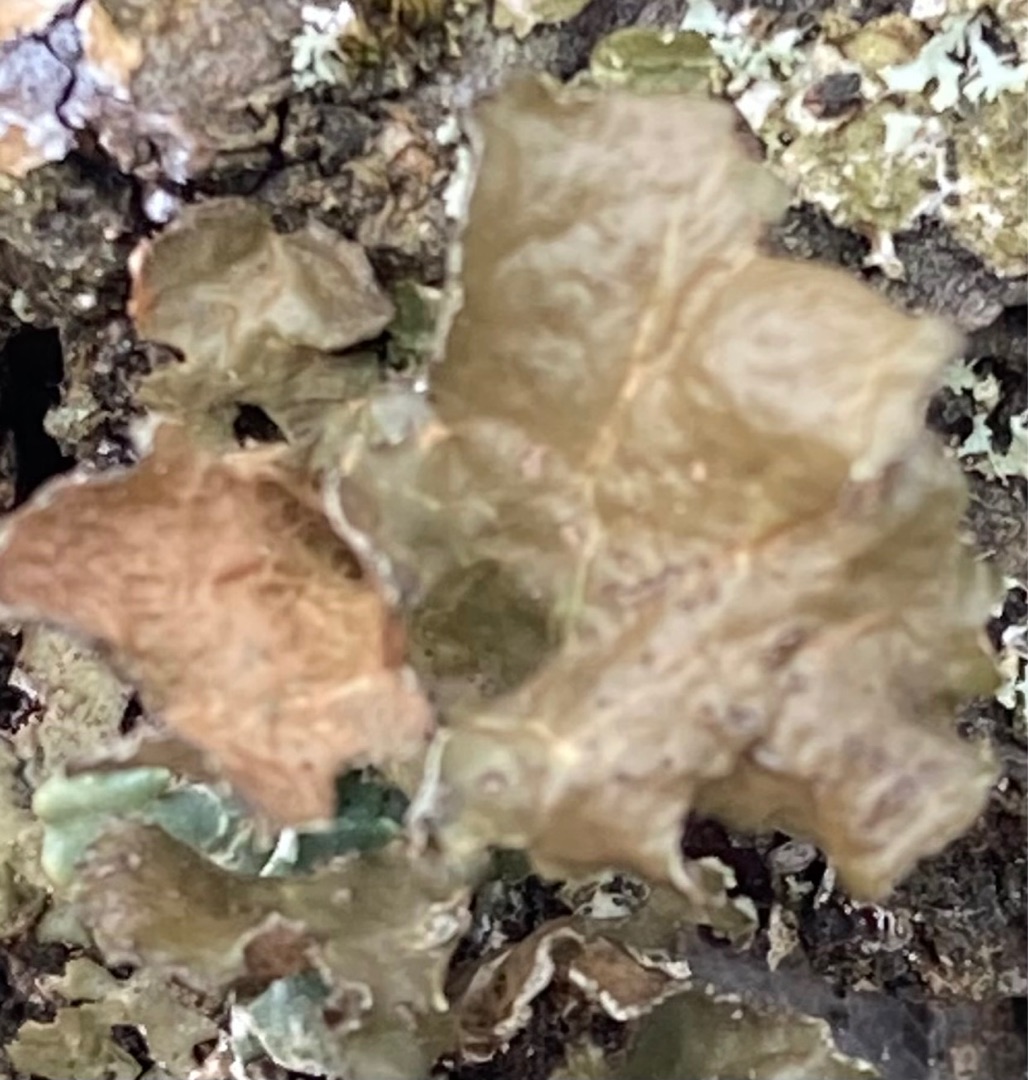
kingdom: Fungi
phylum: Ascomycota
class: Lecanoromycetes
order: Lecanorales
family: Parmeliaceae
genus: Nephromopsis
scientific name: Nephromopsis chlorophylla
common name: Olivenbrun kruslav
